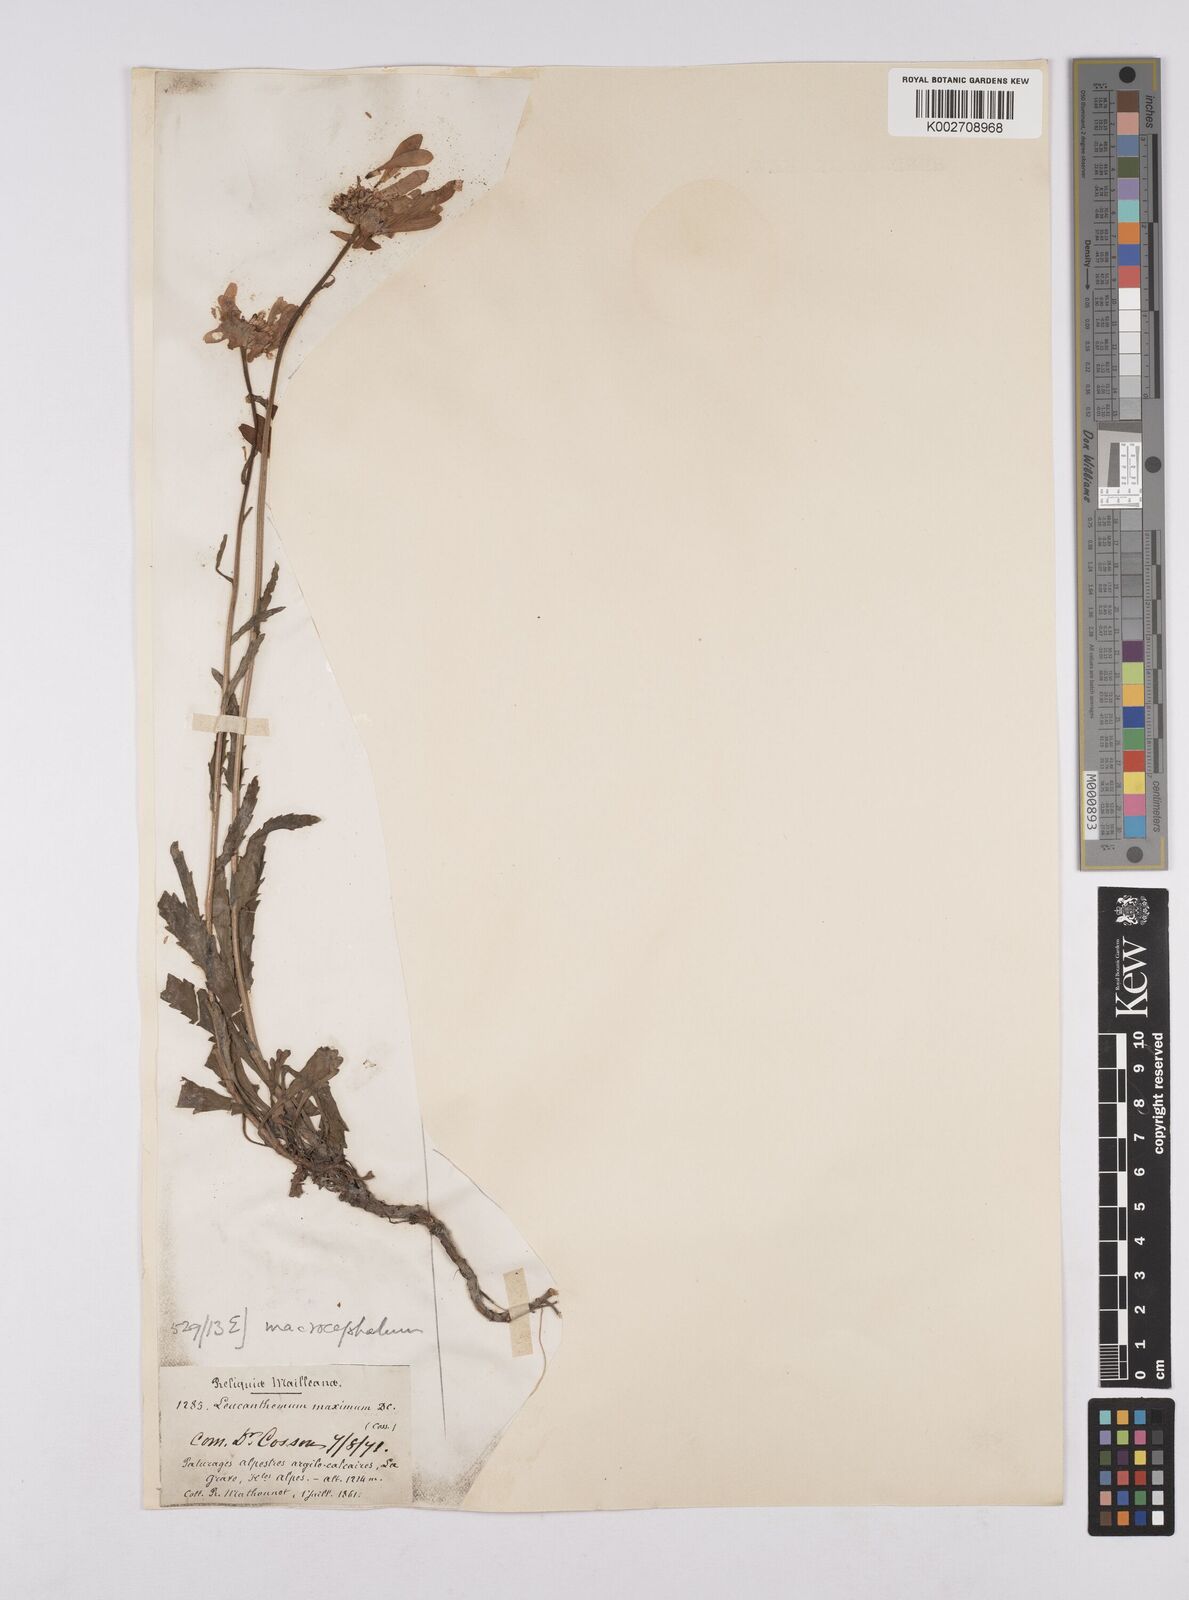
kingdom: Plantae
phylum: Tracheophyta
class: Magnoliopsida
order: Asterales
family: Asteraceae
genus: Leucanthemum
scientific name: Leucanthemum vulgare
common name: Oxeye daisy
